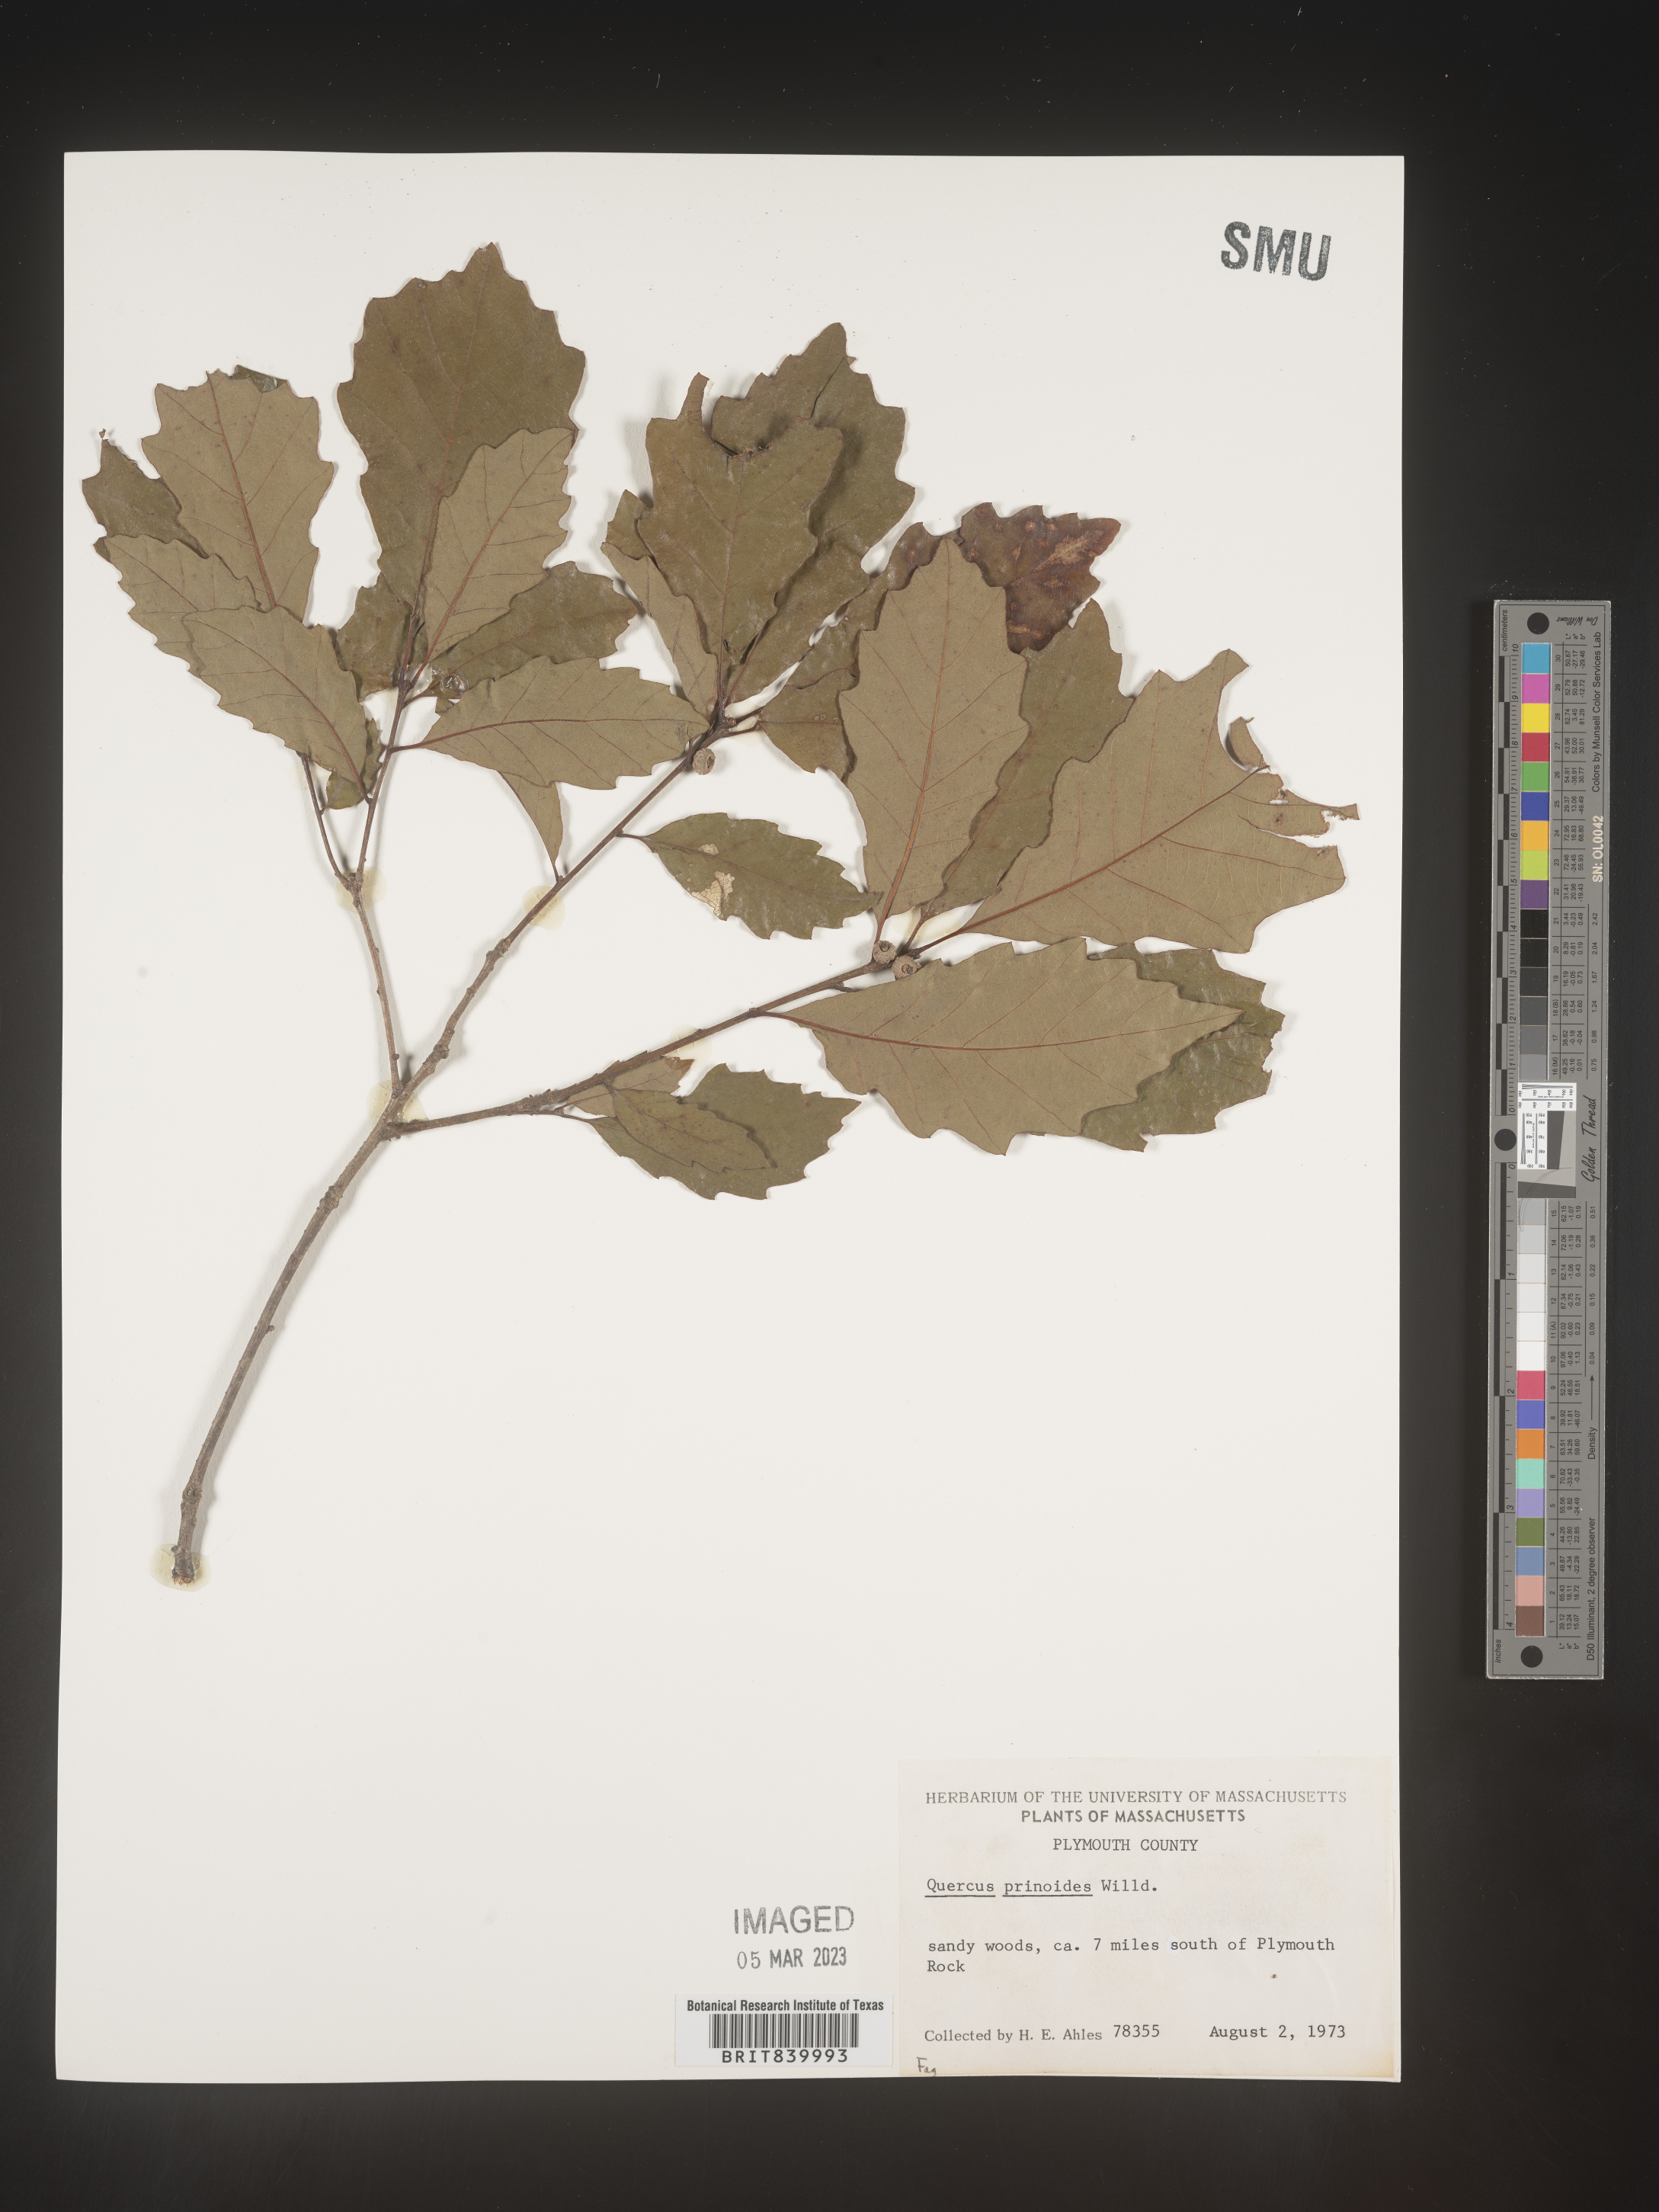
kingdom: Plantae
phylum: Tracheophyta
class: Magnoliopsida
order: Fagales
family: Fagaceae
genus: Quercus
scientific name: Quercus prinoides
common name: Dwarf chinkapin oak
